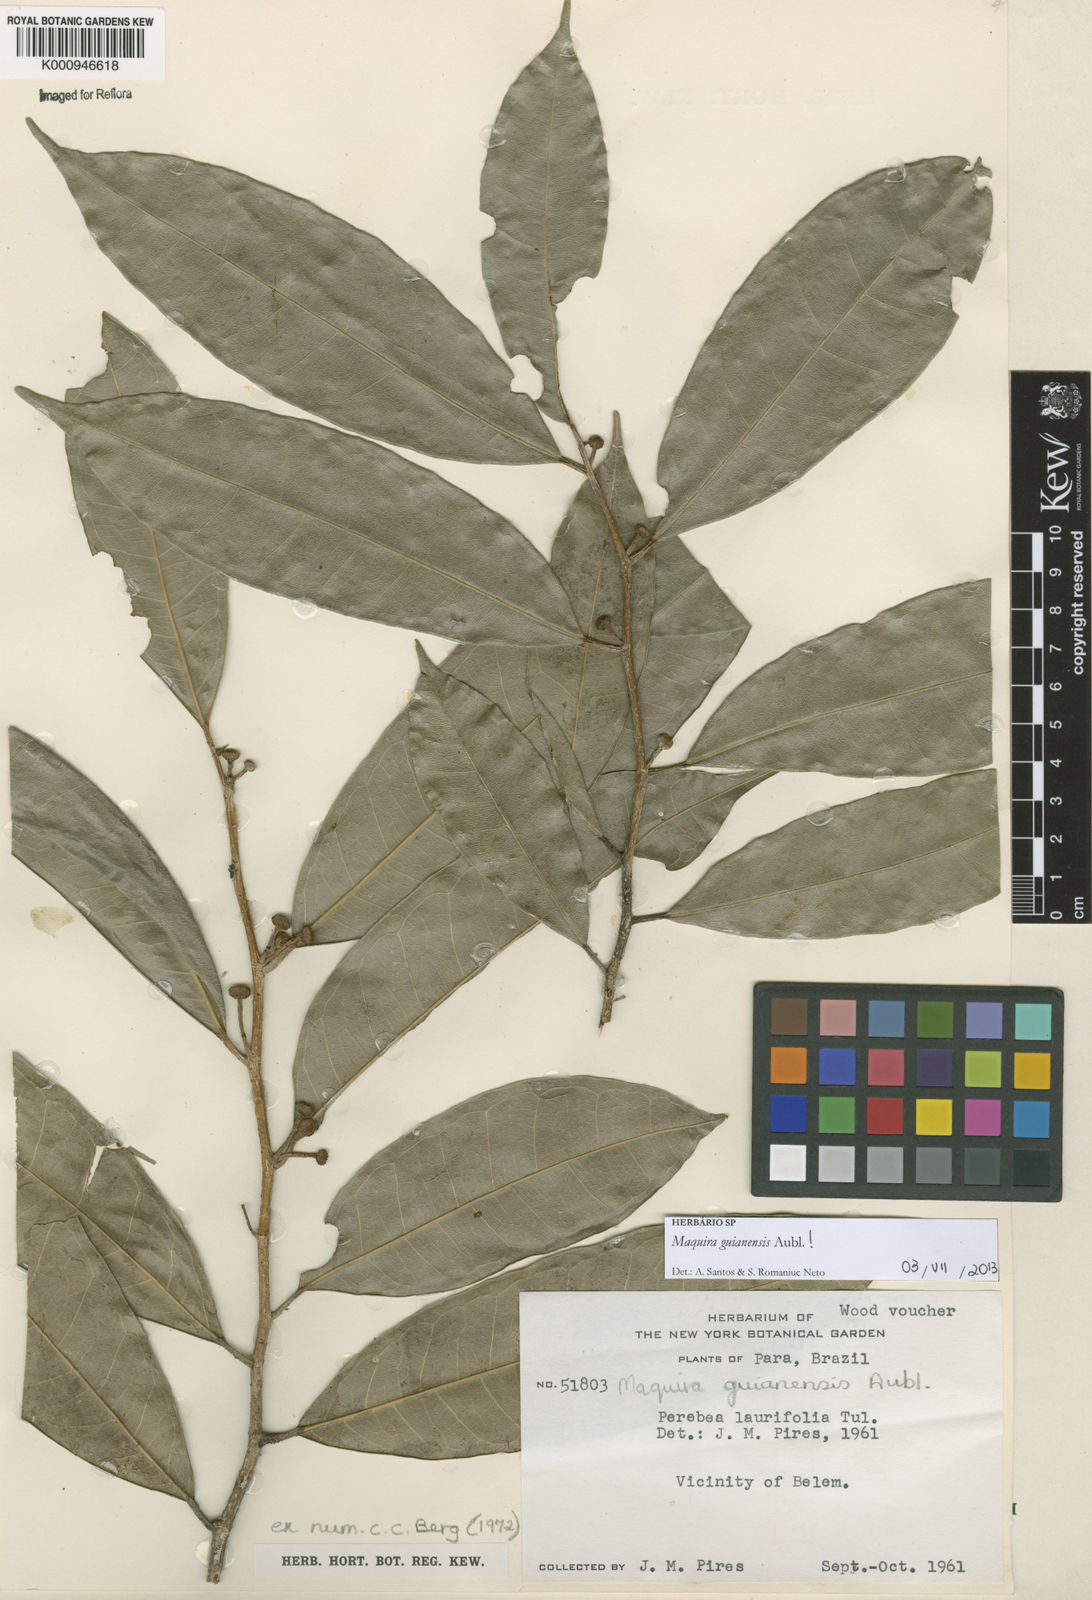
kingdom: Plantae
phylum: Tracheophyta
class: Magnoliopsida
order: Rosales
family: Moraceae
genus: Maquira
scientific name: Maquira guianensis
